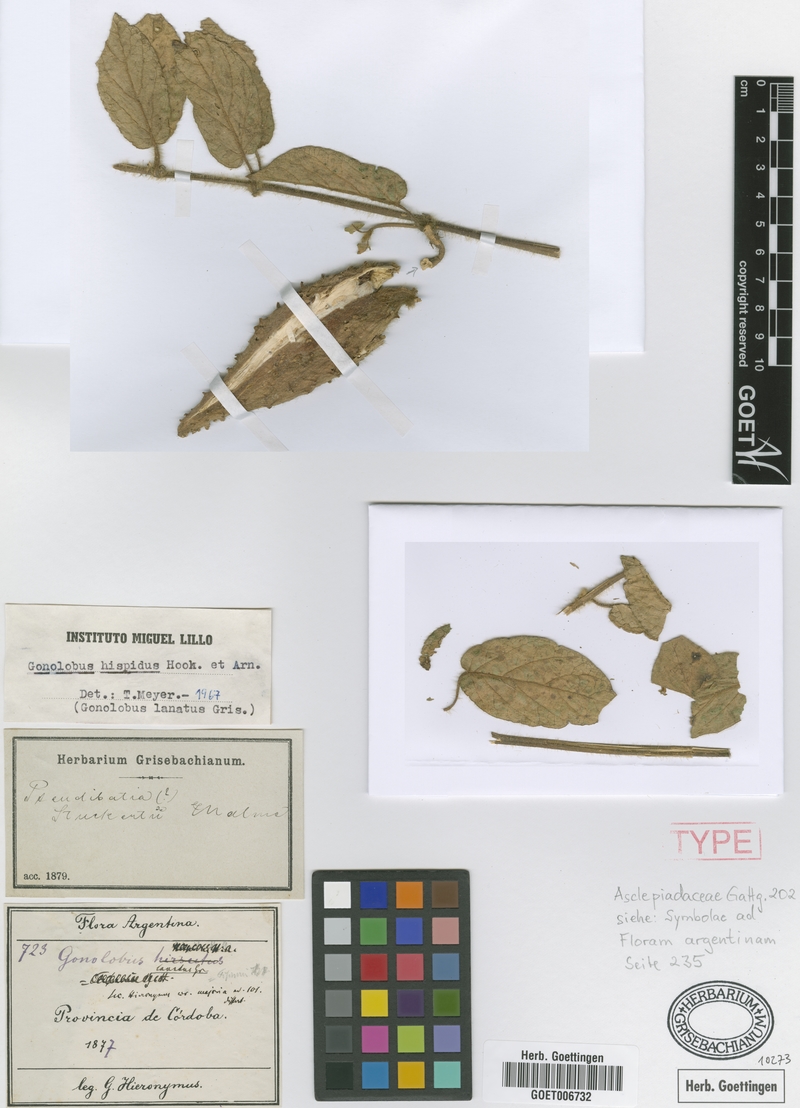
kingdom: Plantae
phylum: Tracheophyta
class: Magnoliopsida
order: Gentianales
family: Apocynaceae
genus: Ibatia
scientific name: Ibatia foetida
